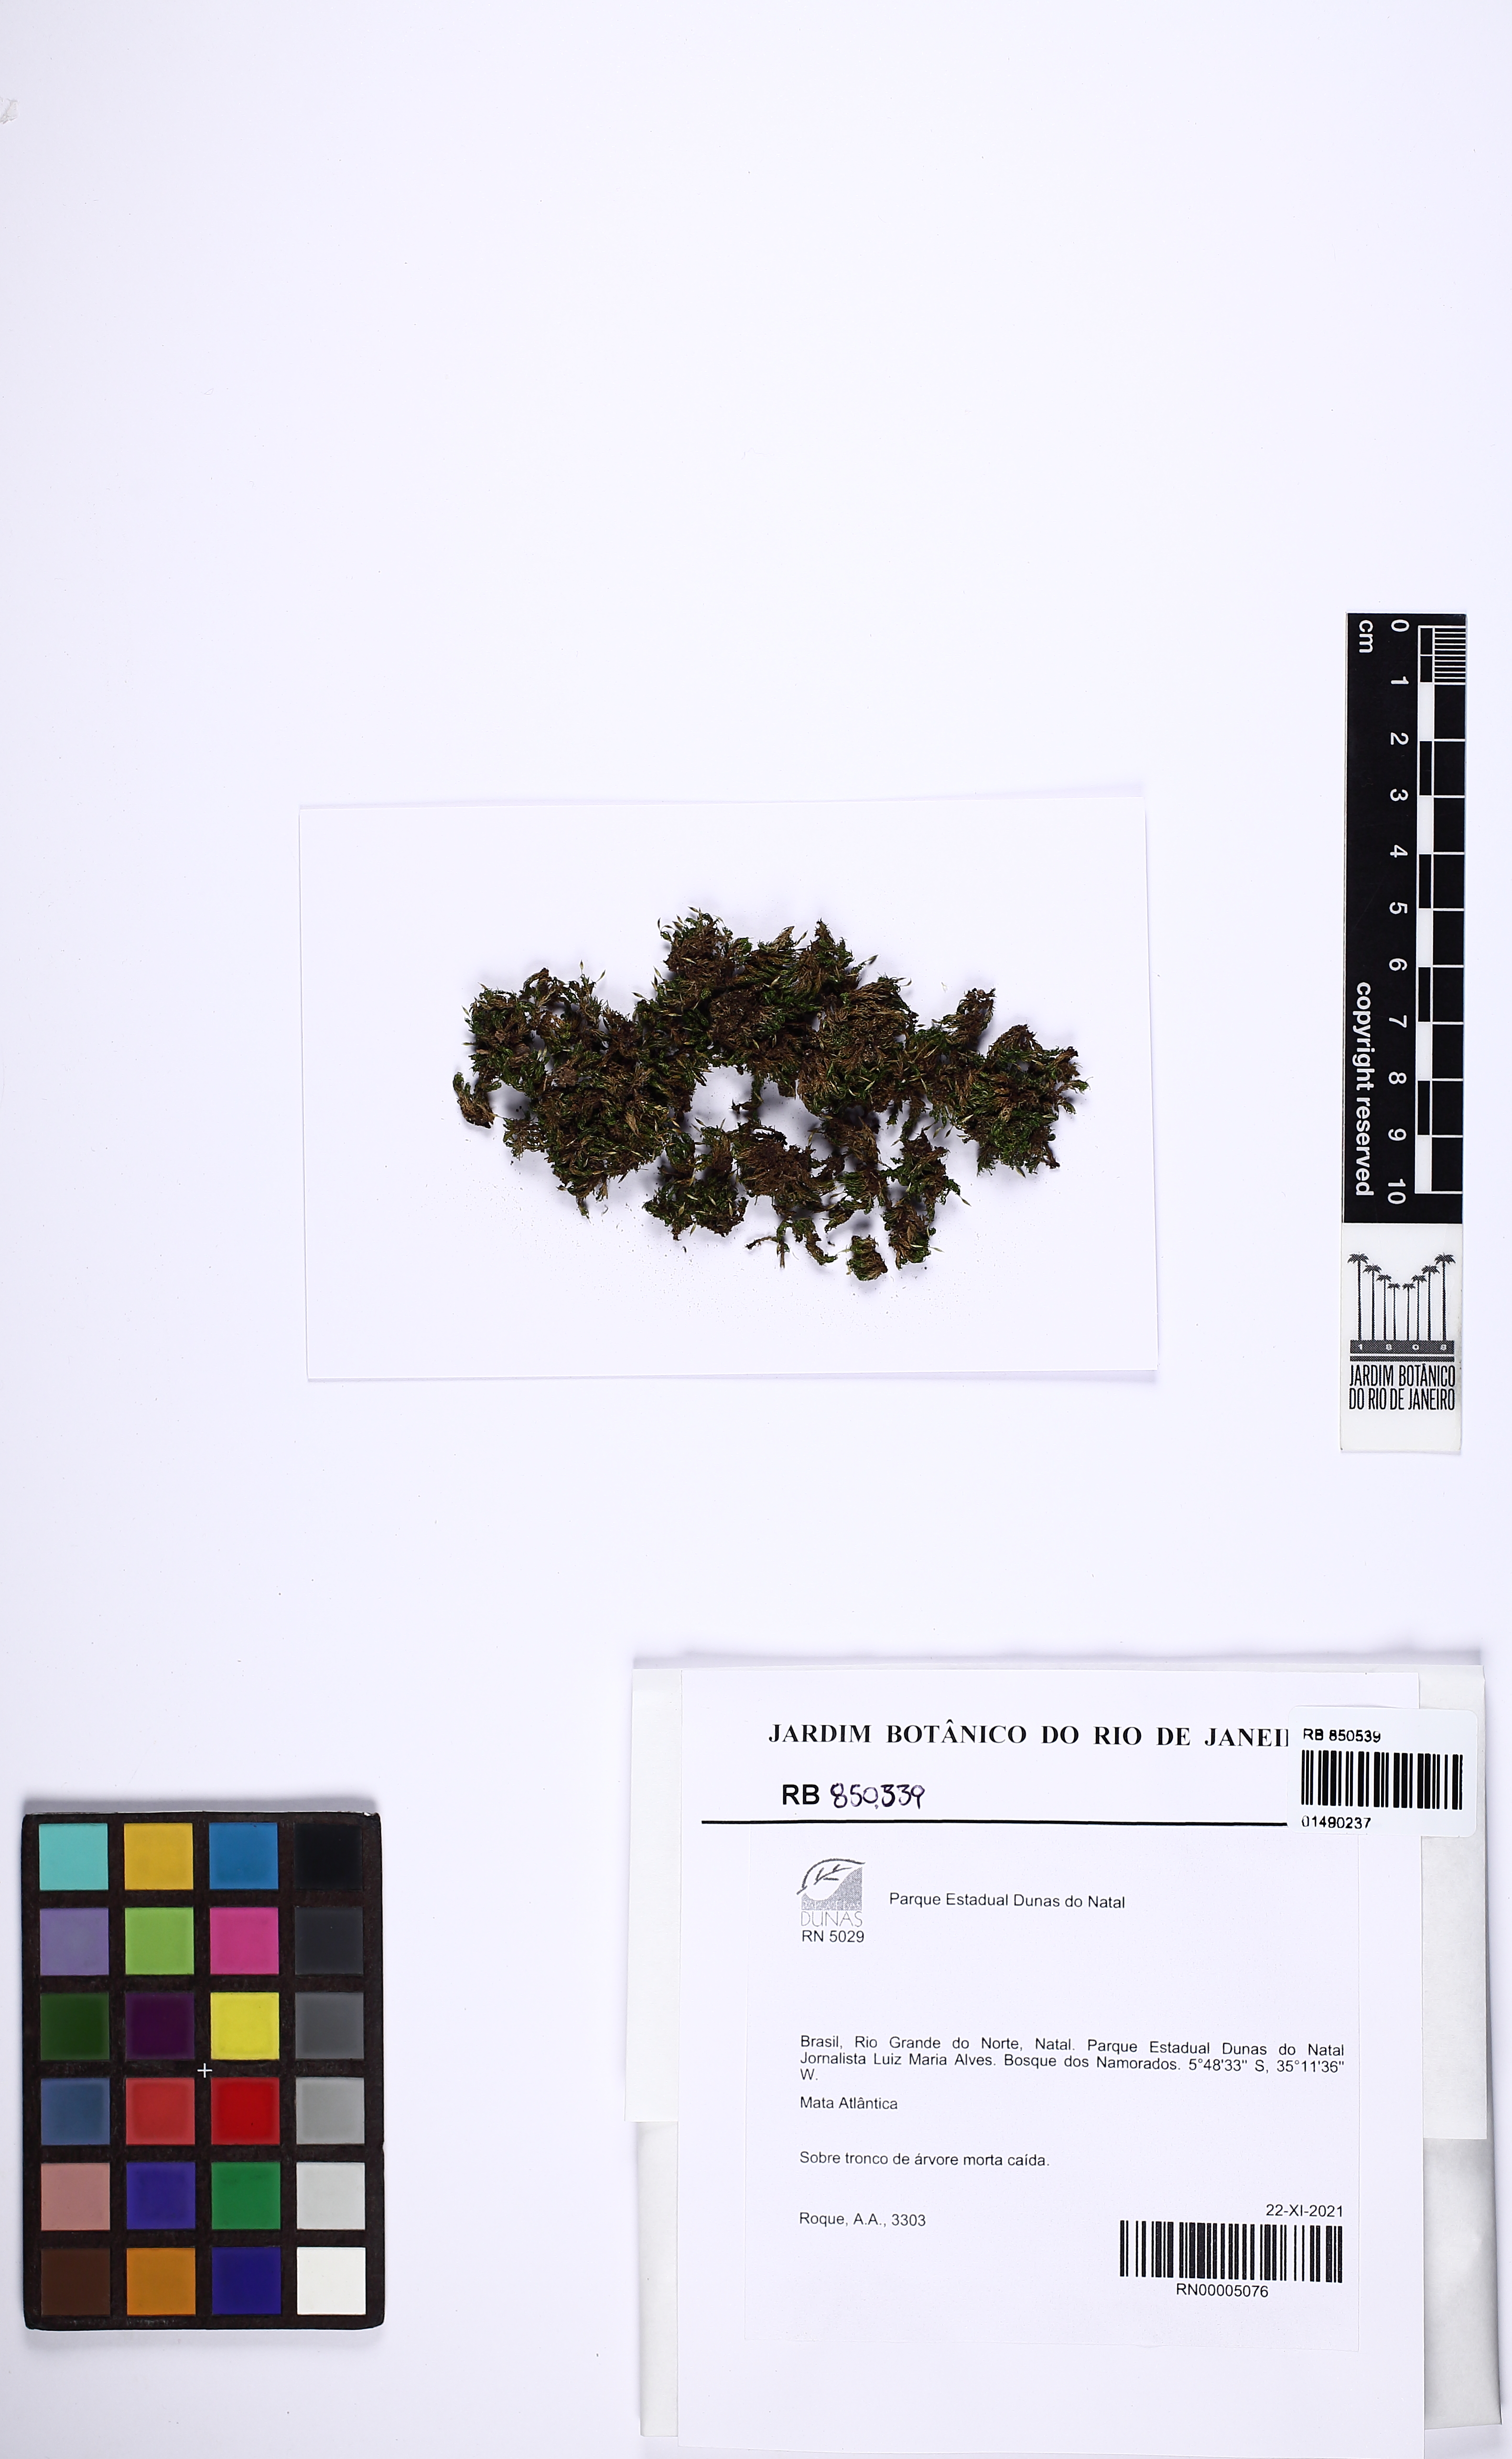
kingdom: Plantae
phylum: Bryophyta
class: Bryopsida
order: Dicranales
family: Calymperaceae
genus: Calymperes
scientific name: Calymperes palisotii
